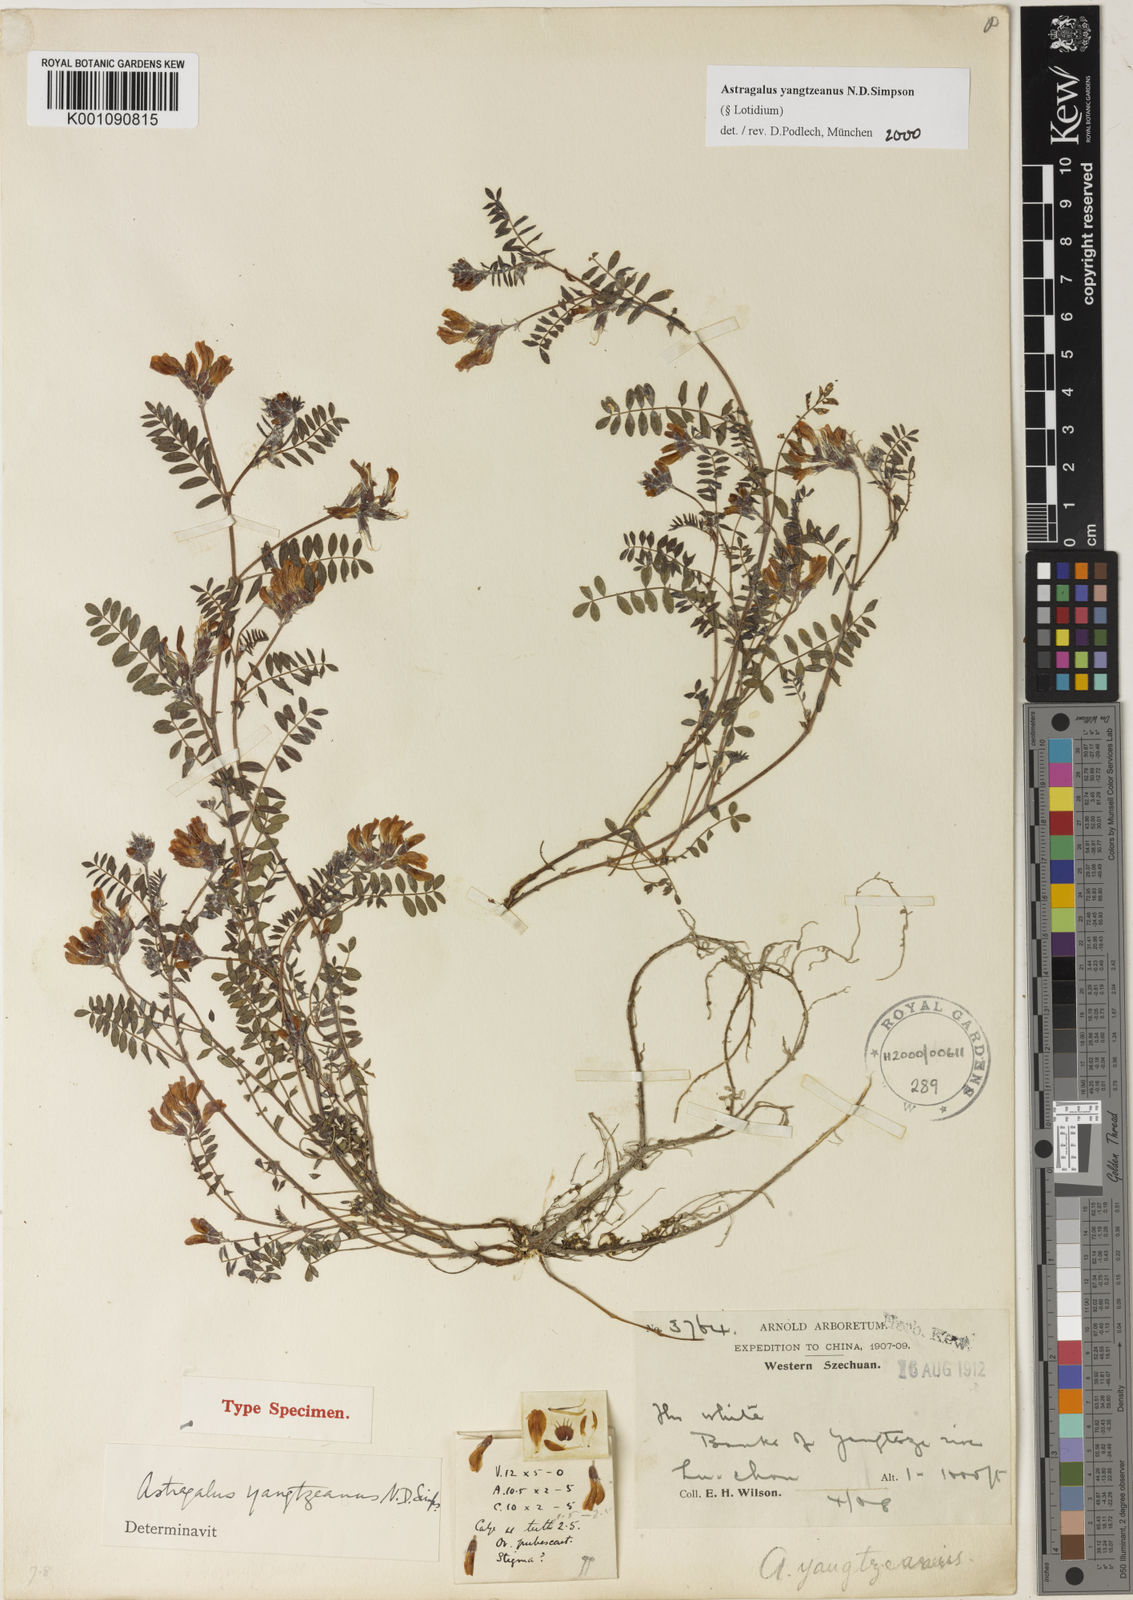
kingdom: Plantae
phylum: Tracheophyta
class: Magnoliopsida
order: Fabales
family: Fabaceae
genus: Astragalus
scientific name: Astragalus
